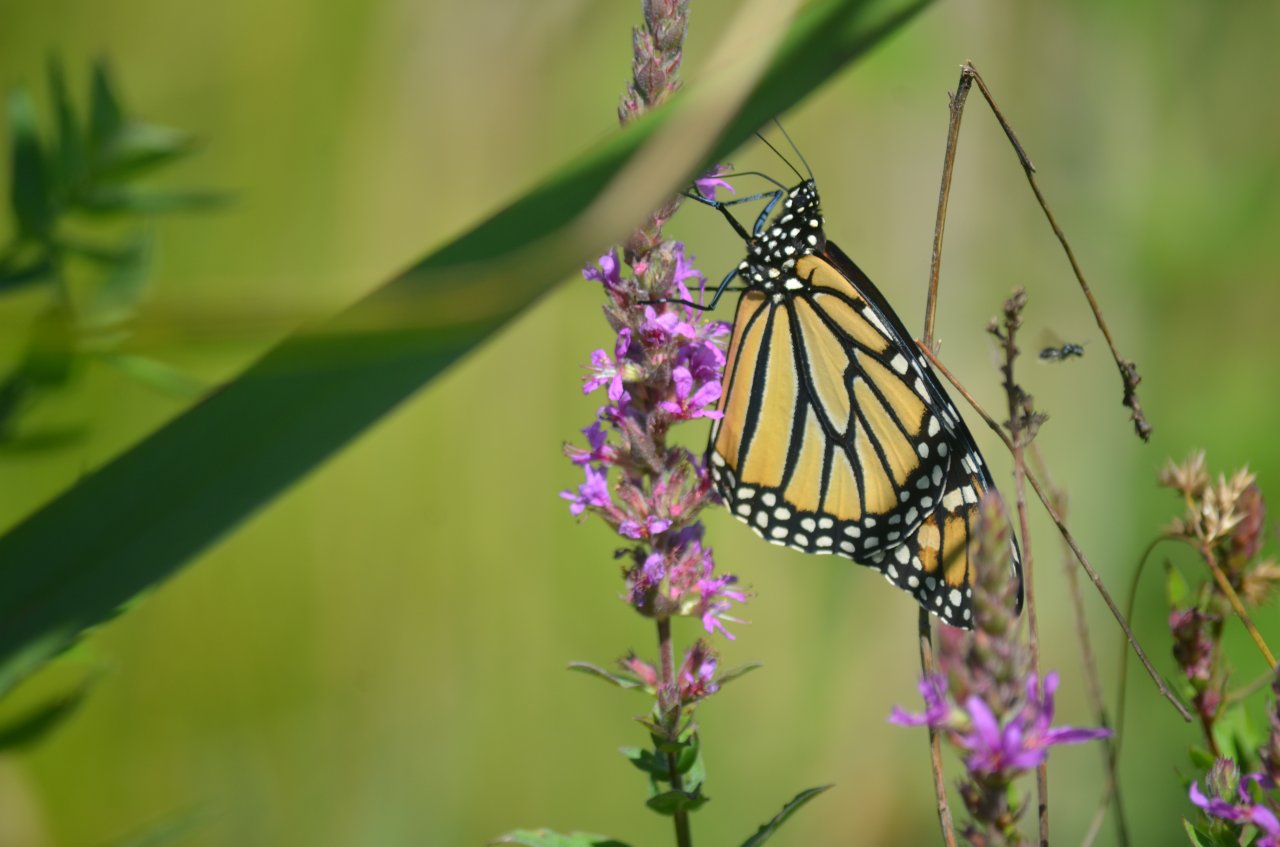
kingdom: Animalia
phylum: Arthropoda
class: Insecta
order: Lepidoptera
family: Nymphalidae
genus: Danaus
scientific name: Danaus plexippus
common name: Monarch
